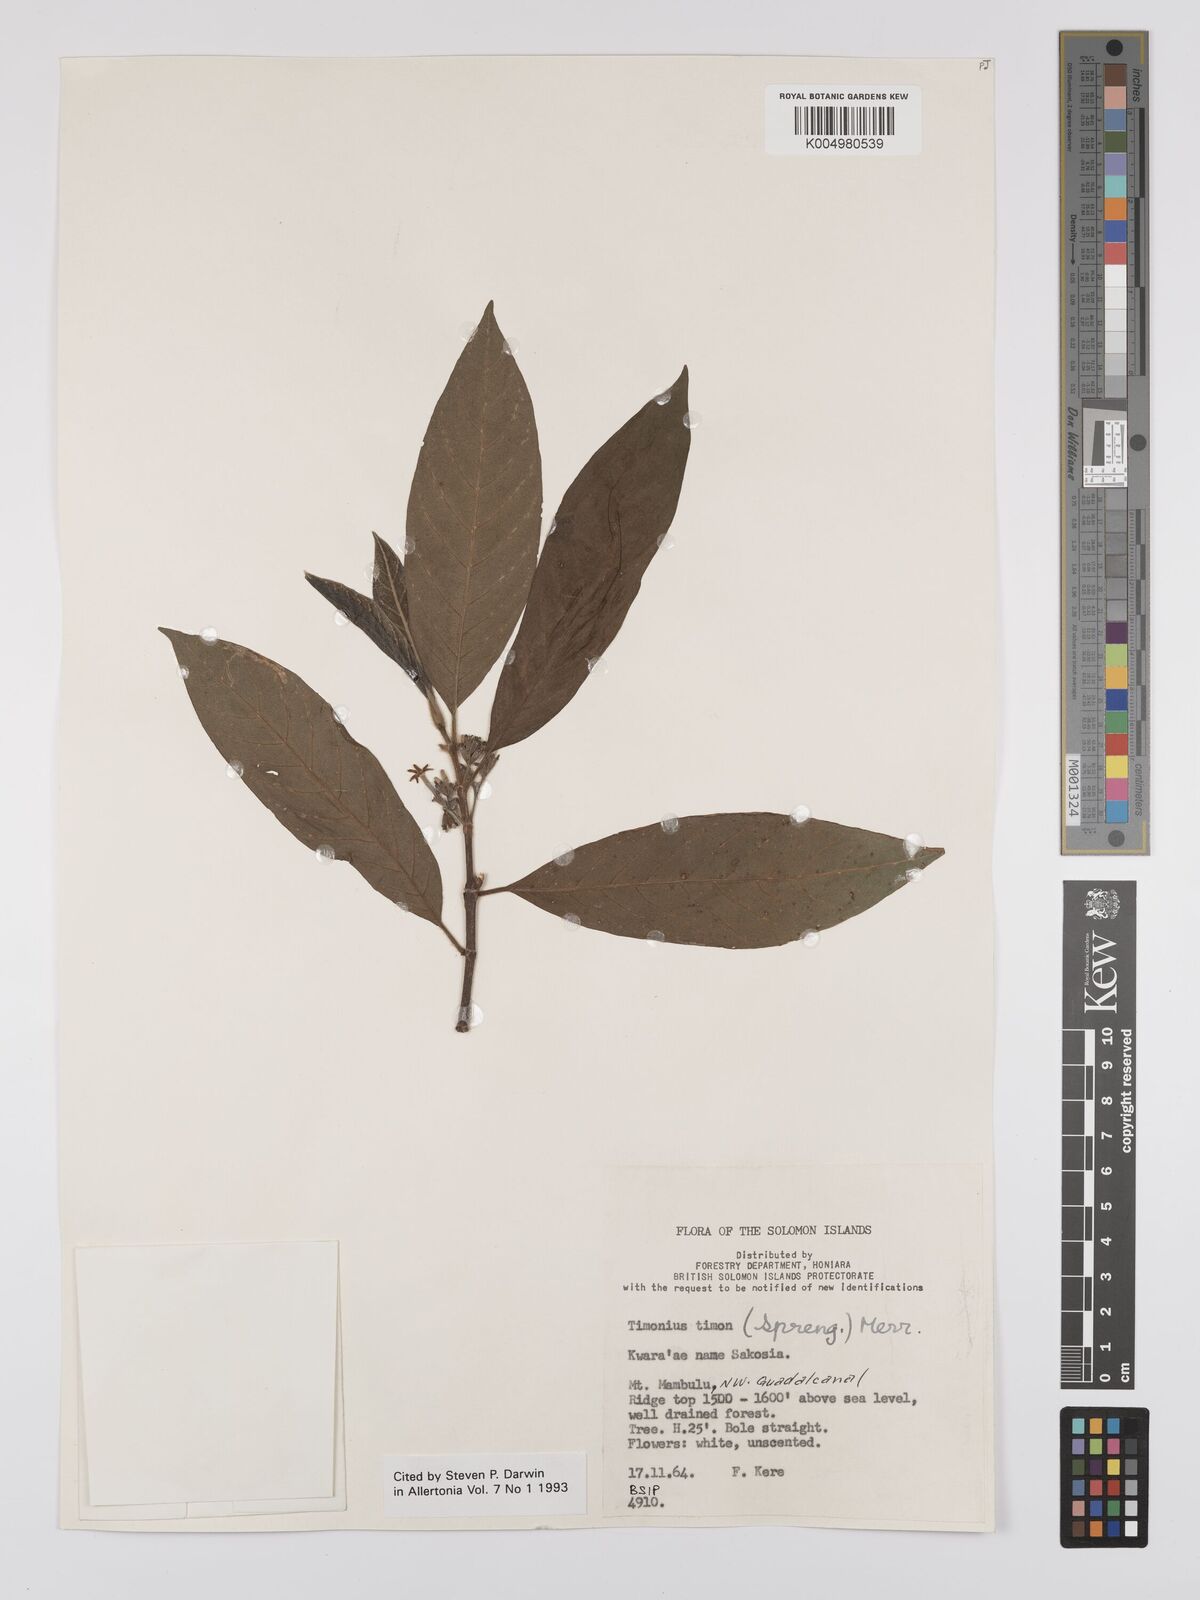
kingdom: Plantae
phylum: Tracheophyta
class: Magnoliopsida
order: Gentianales
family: Rubiaceae
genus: Timonius
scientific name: Timonius timon
